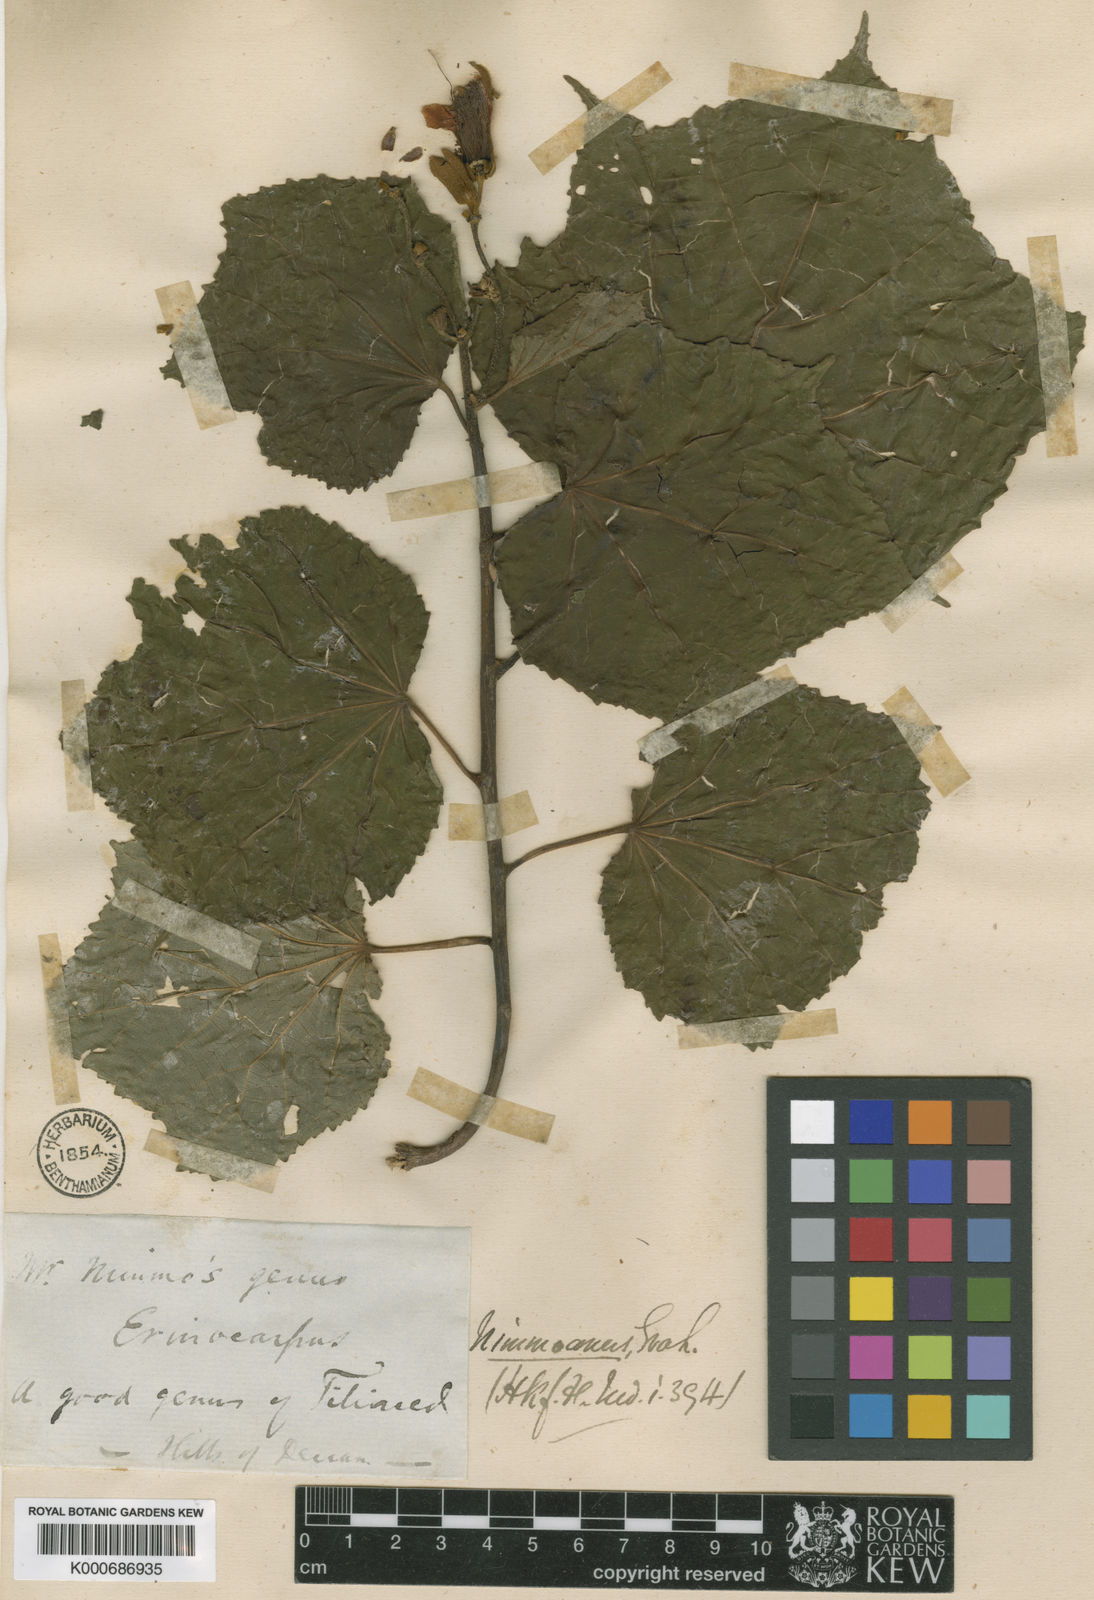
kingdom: Plantae
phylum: Tracheophyta
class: Magnoliopsida
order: Malvales
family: Malvaceae
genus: Erinocarpus
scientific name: Erinocarpus nimmonii
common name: Nimmo's erinocarpus
